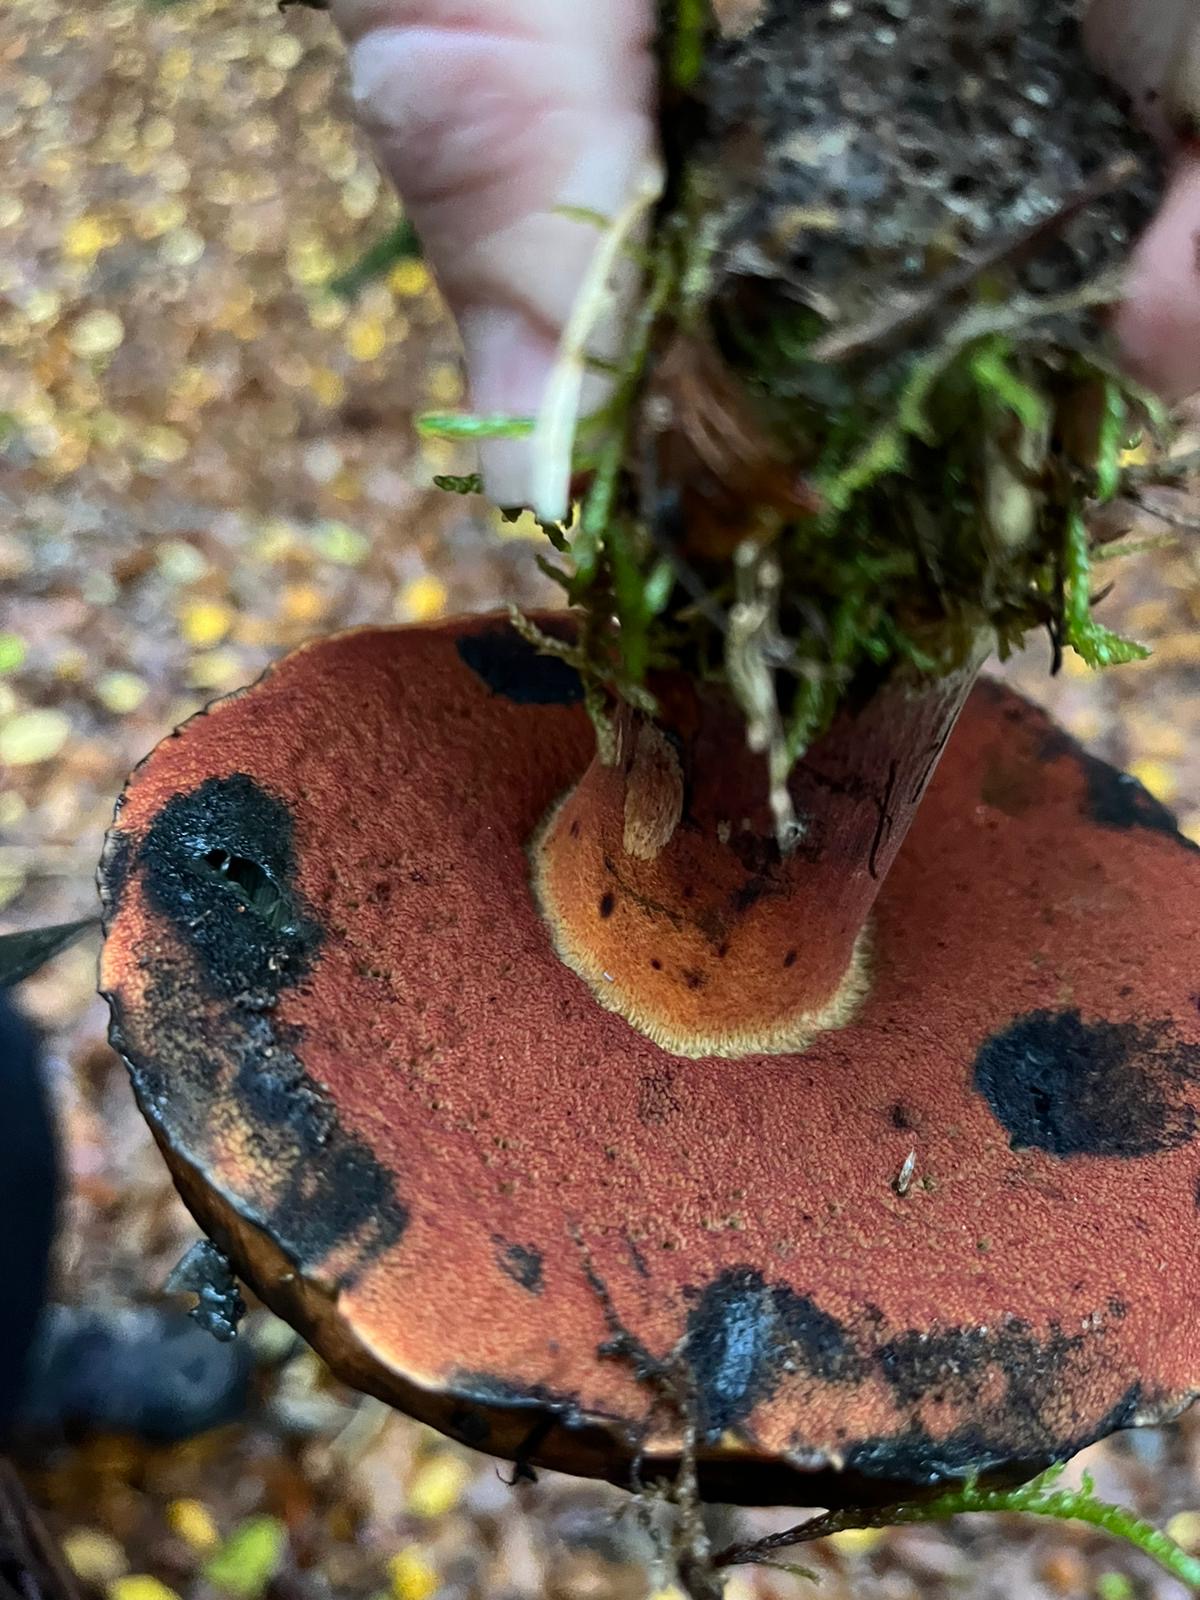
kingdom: Fungi
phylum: Basidiomycota
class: Agaricomycetes
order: Boletales
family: Boletaceae
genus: Neoboletus
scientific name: Neoboletus erythropus
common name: punktstokket indigorørhat
